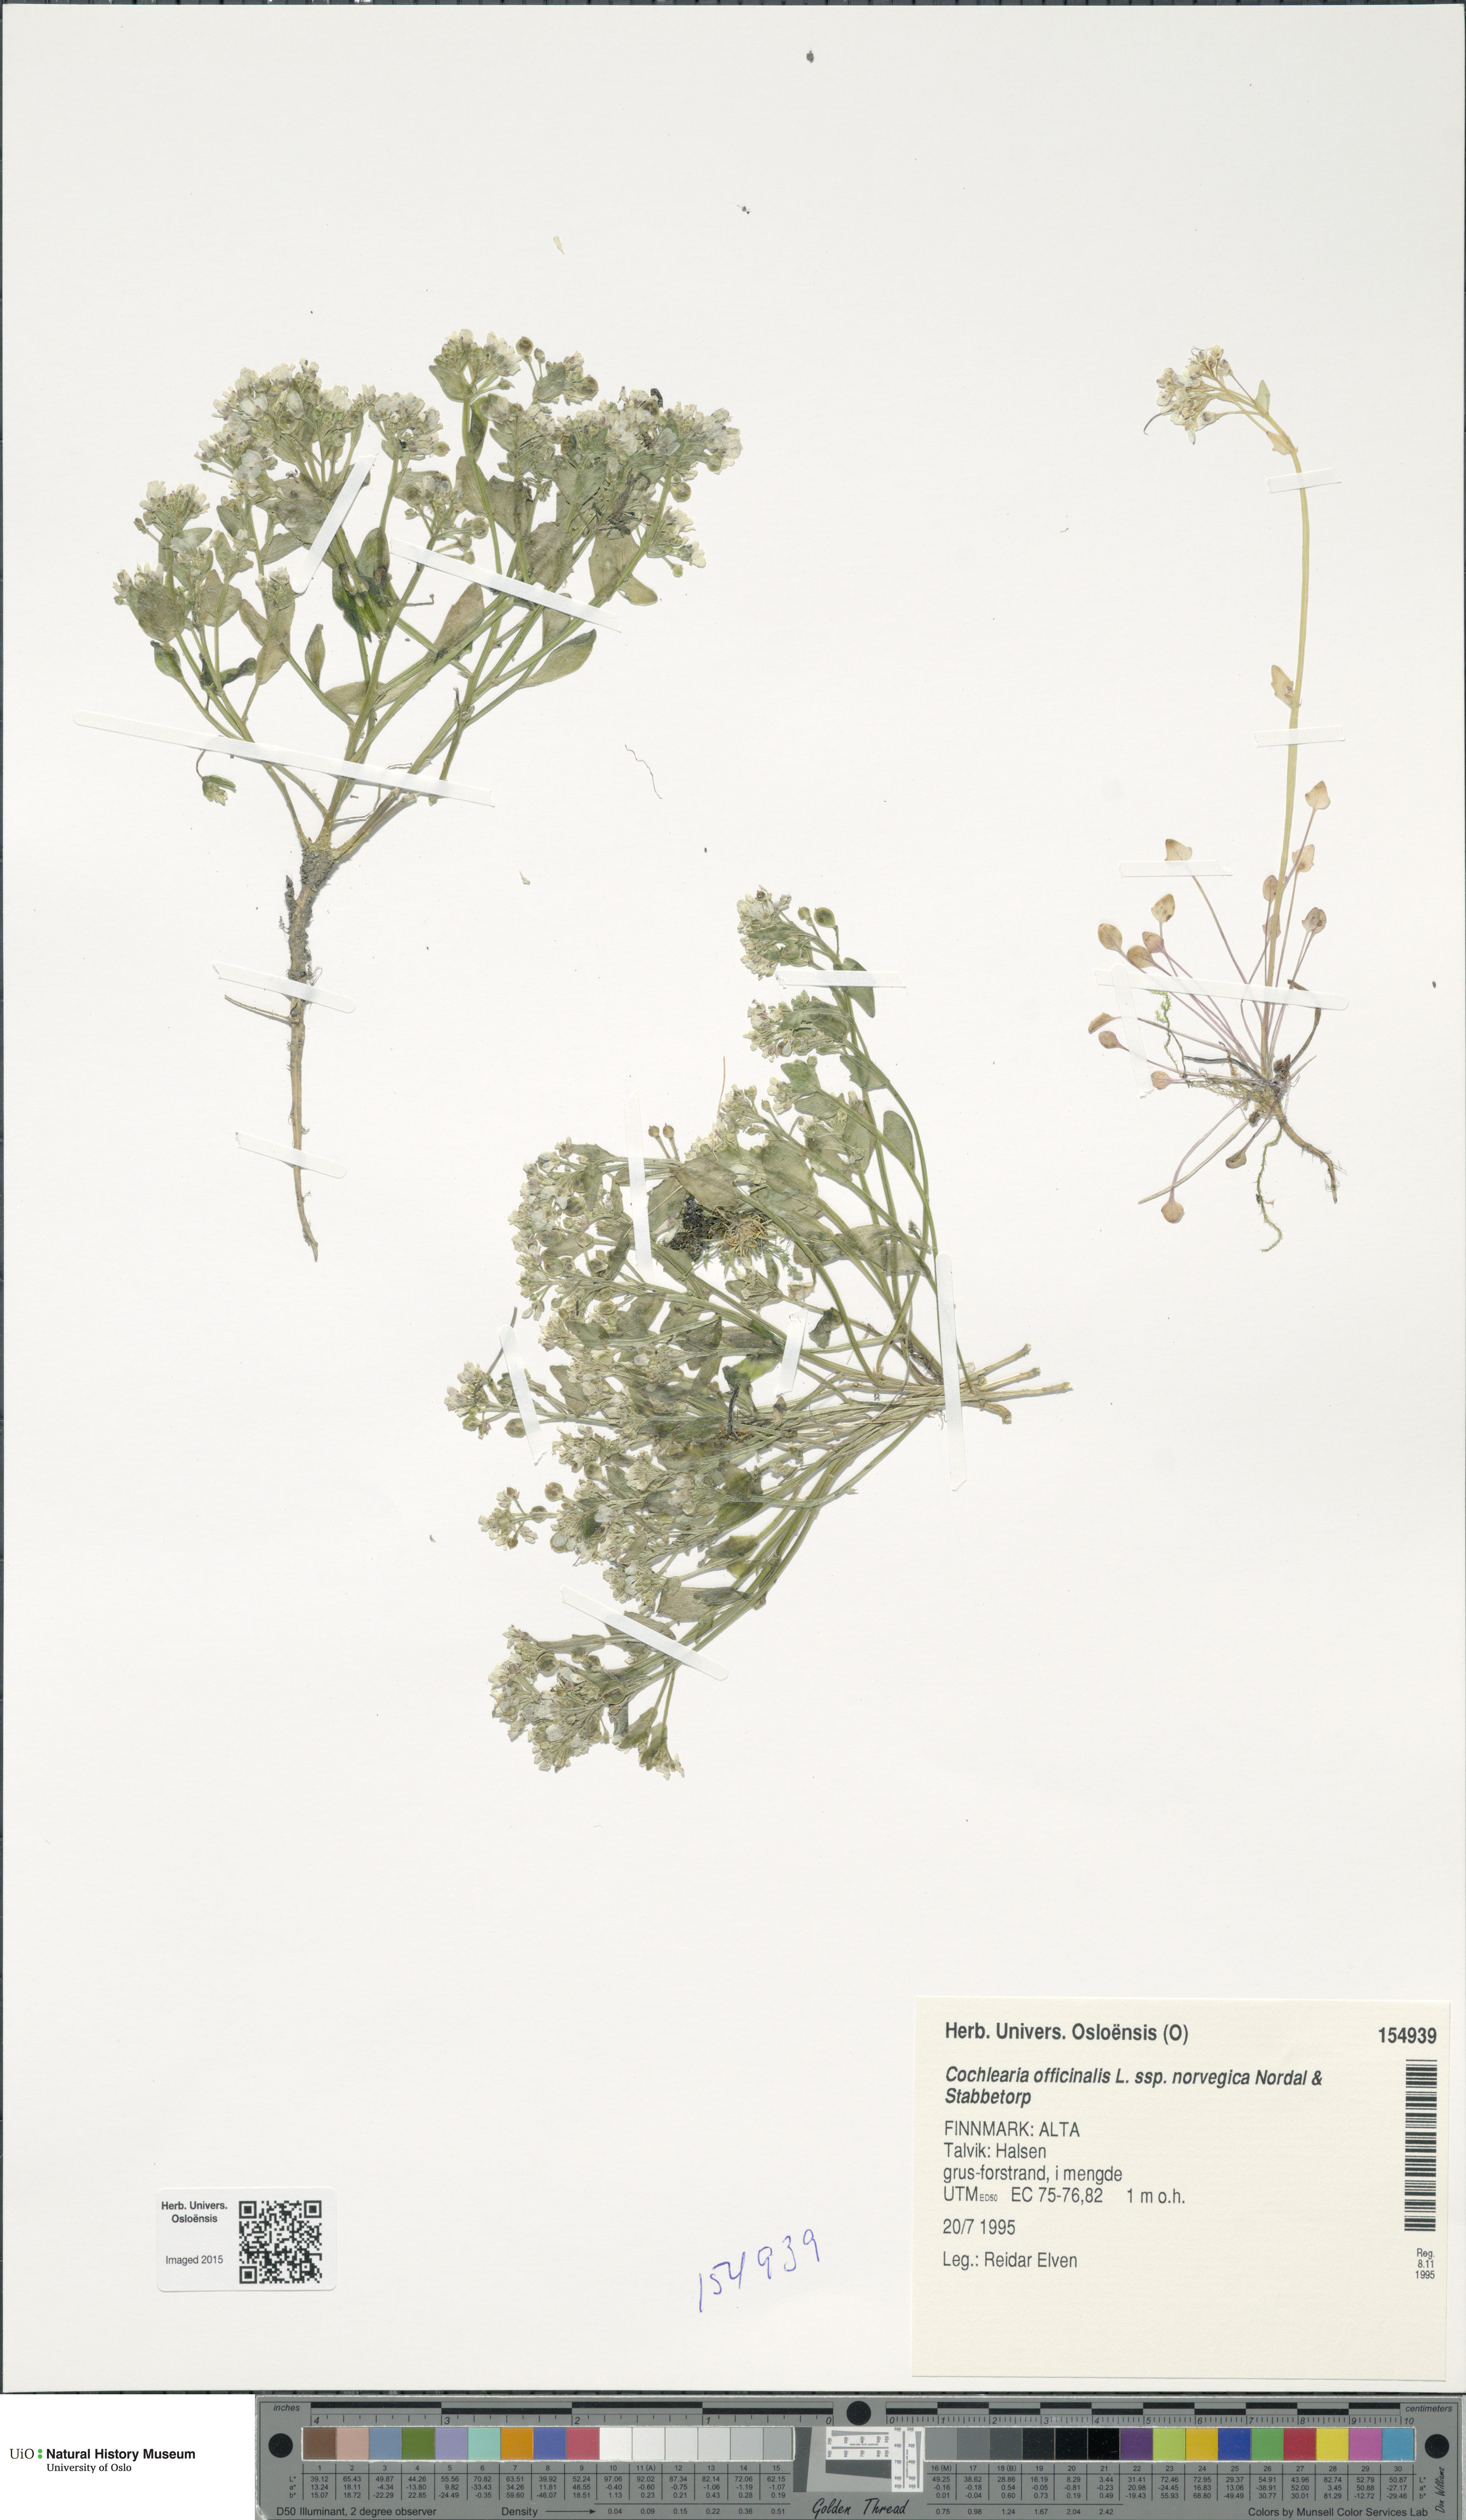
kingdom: Plantae
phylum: Tracheophyta
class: Magnoliopsida
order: Brassicales
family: Brassicaceae
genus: Cochlearia
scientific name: Cochlearia officinalis
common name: Scurvy-grass
